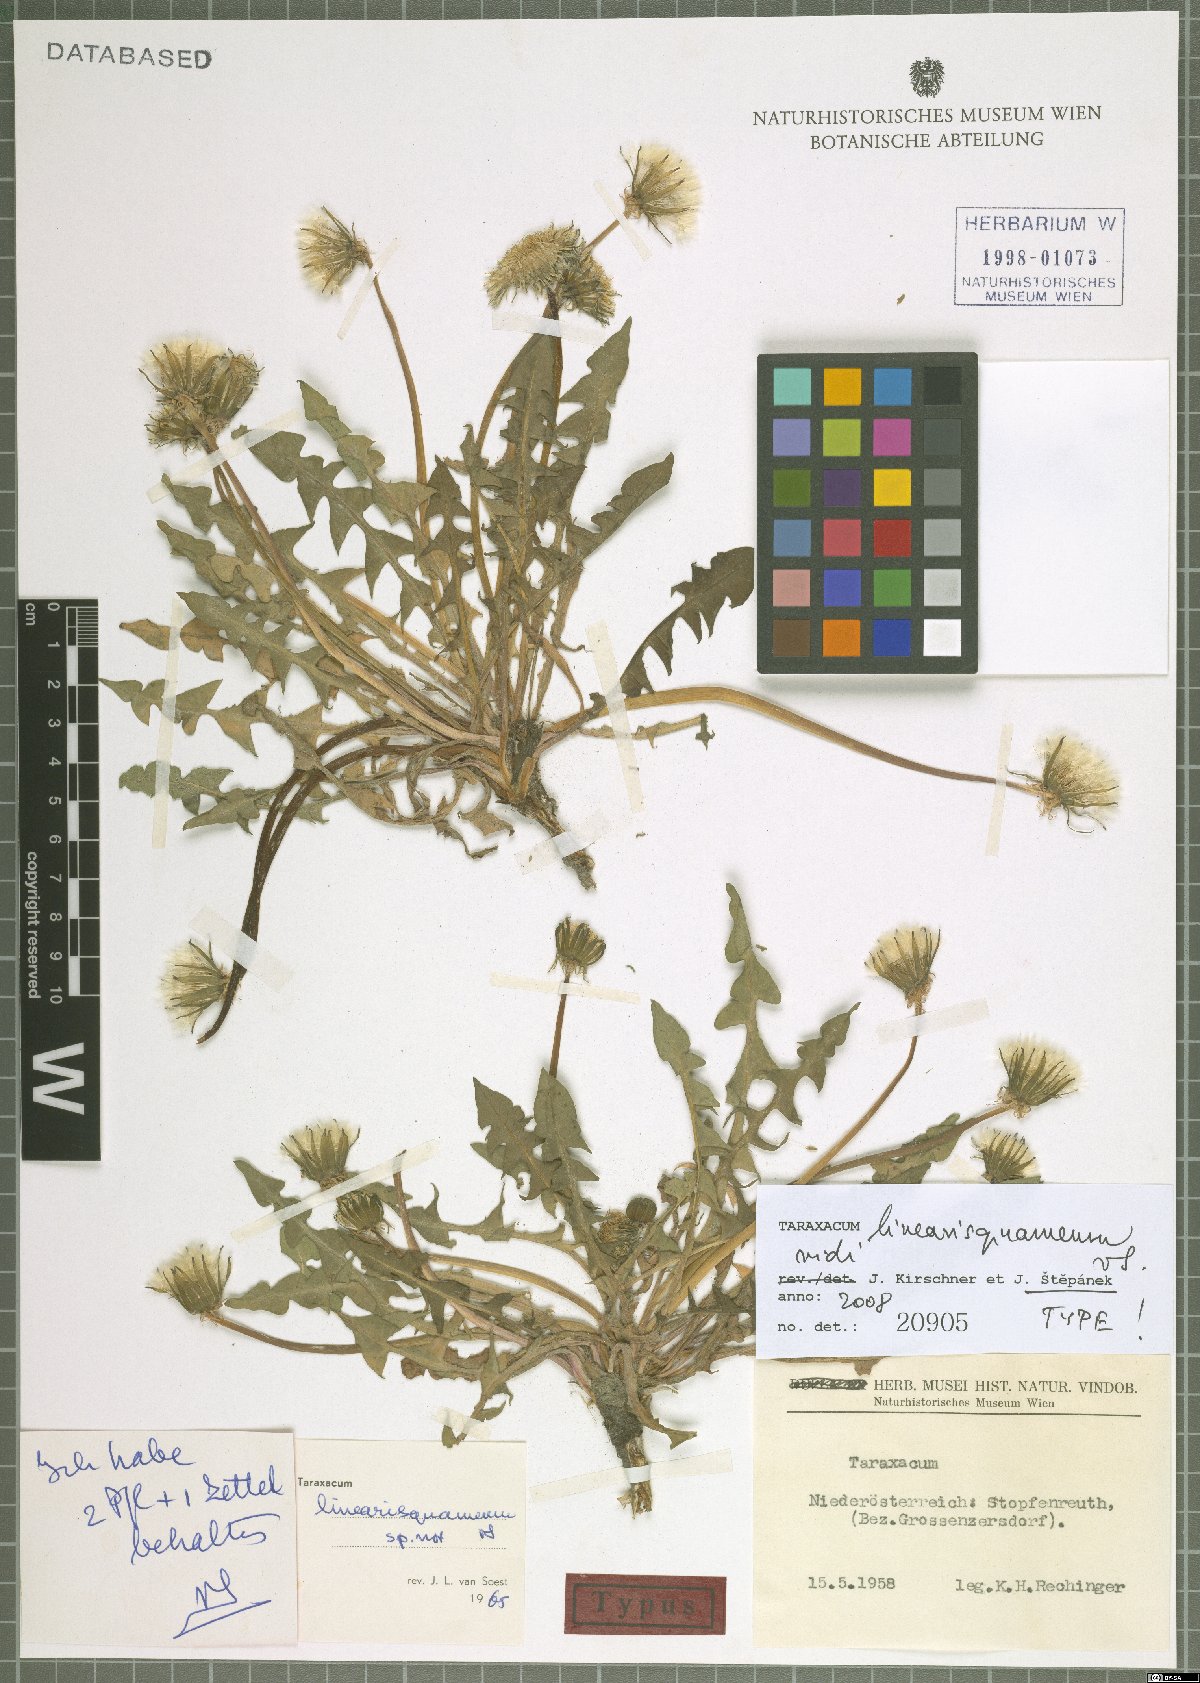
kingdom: Plantae
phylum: Tracheophyta
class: Magnoliopsida
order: Asterales
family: Asteraceae
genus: Taraxacum
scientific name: Taraxacum linearisquameum
